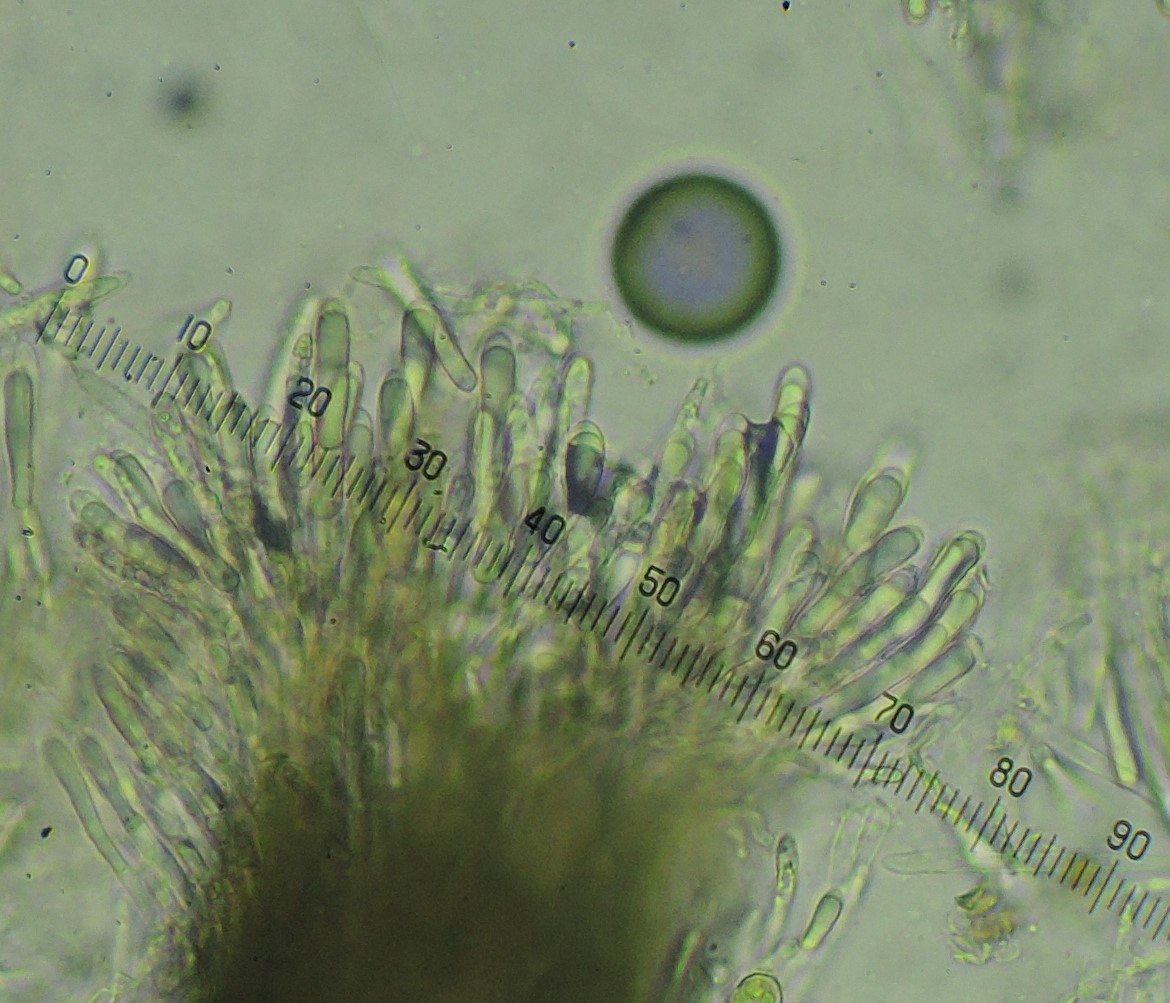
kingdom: Fungi
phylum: Ascomycota
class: Leotiomycetes
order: Helotiales
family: Mollisiaceae
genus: Tapesia
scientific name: Tapesia villosa
